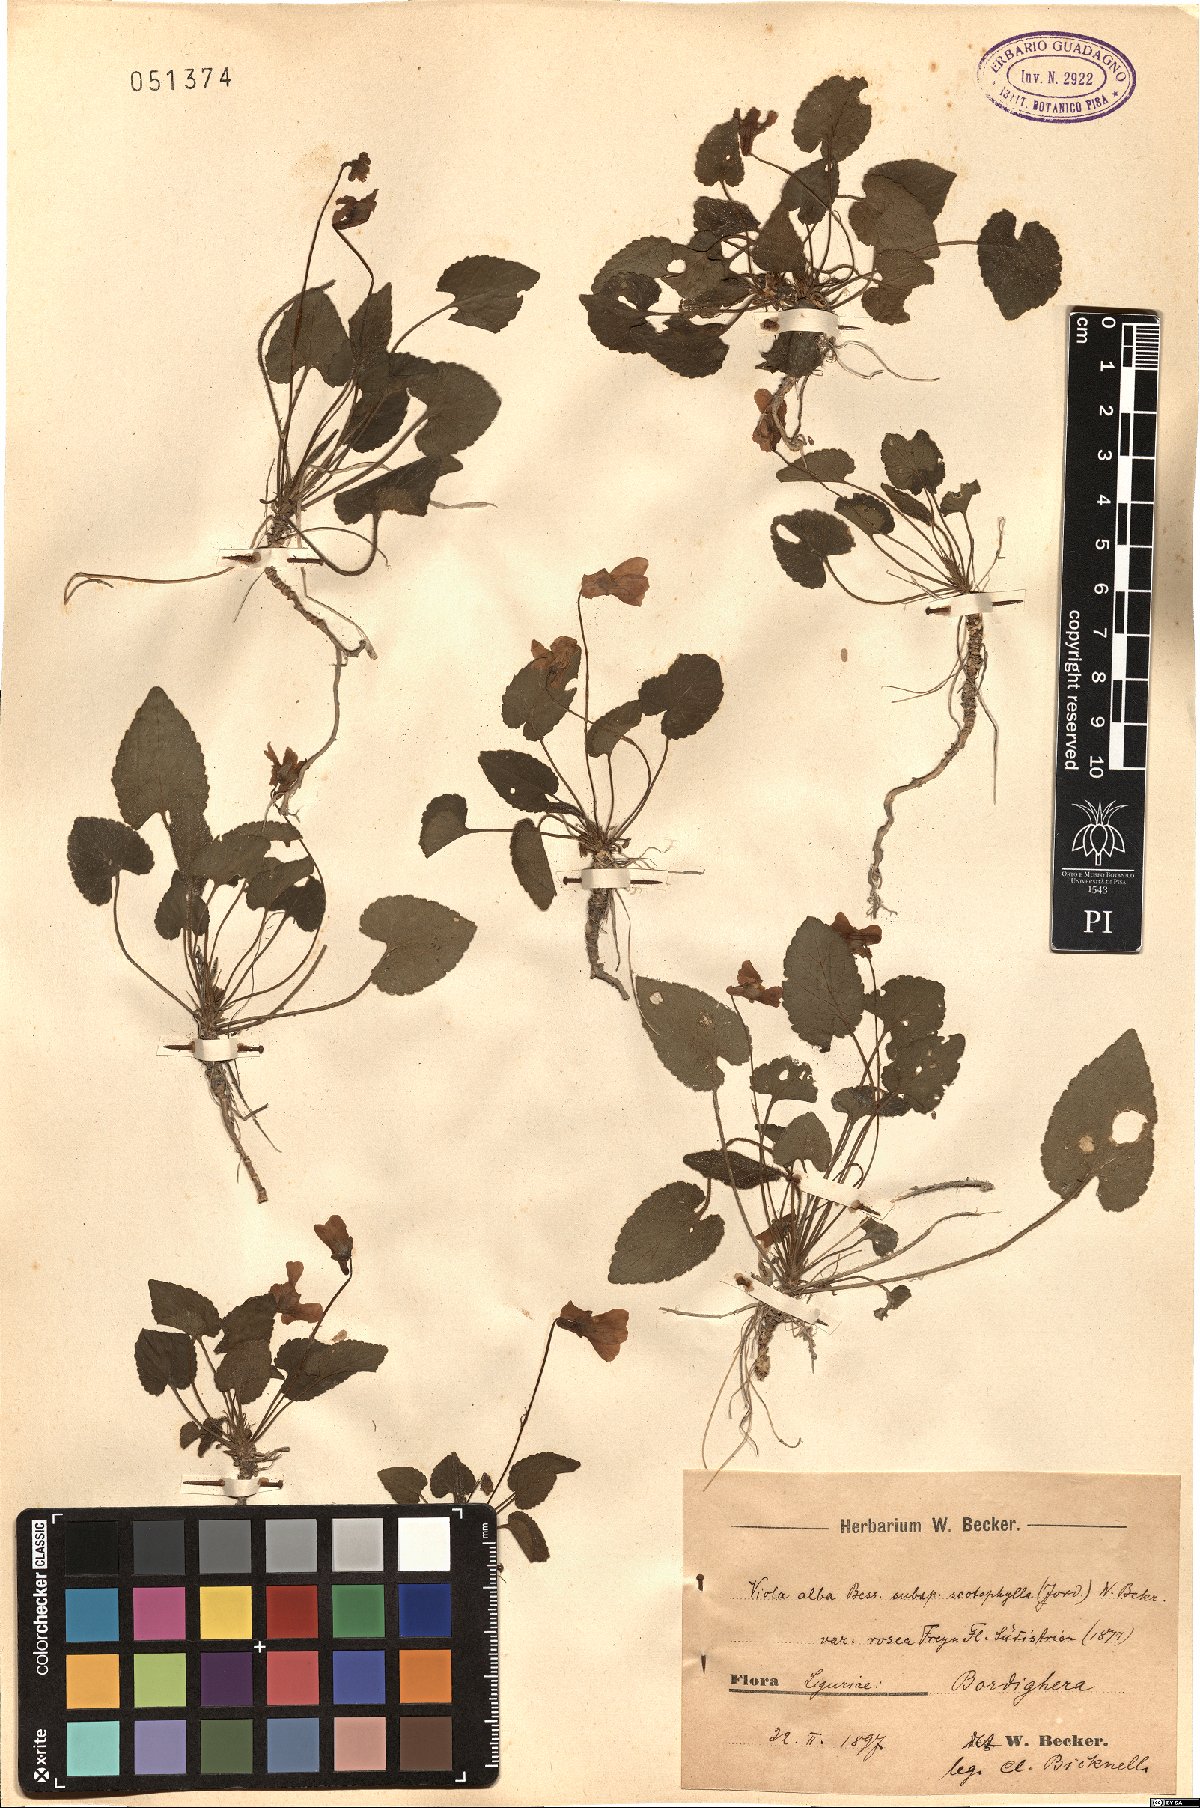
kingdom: Plantae
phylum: Tracheophyta
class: Magnoliopsida
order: Malpighiales
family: Violaceae
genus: Viola
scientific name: Viola alba
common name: White violet
